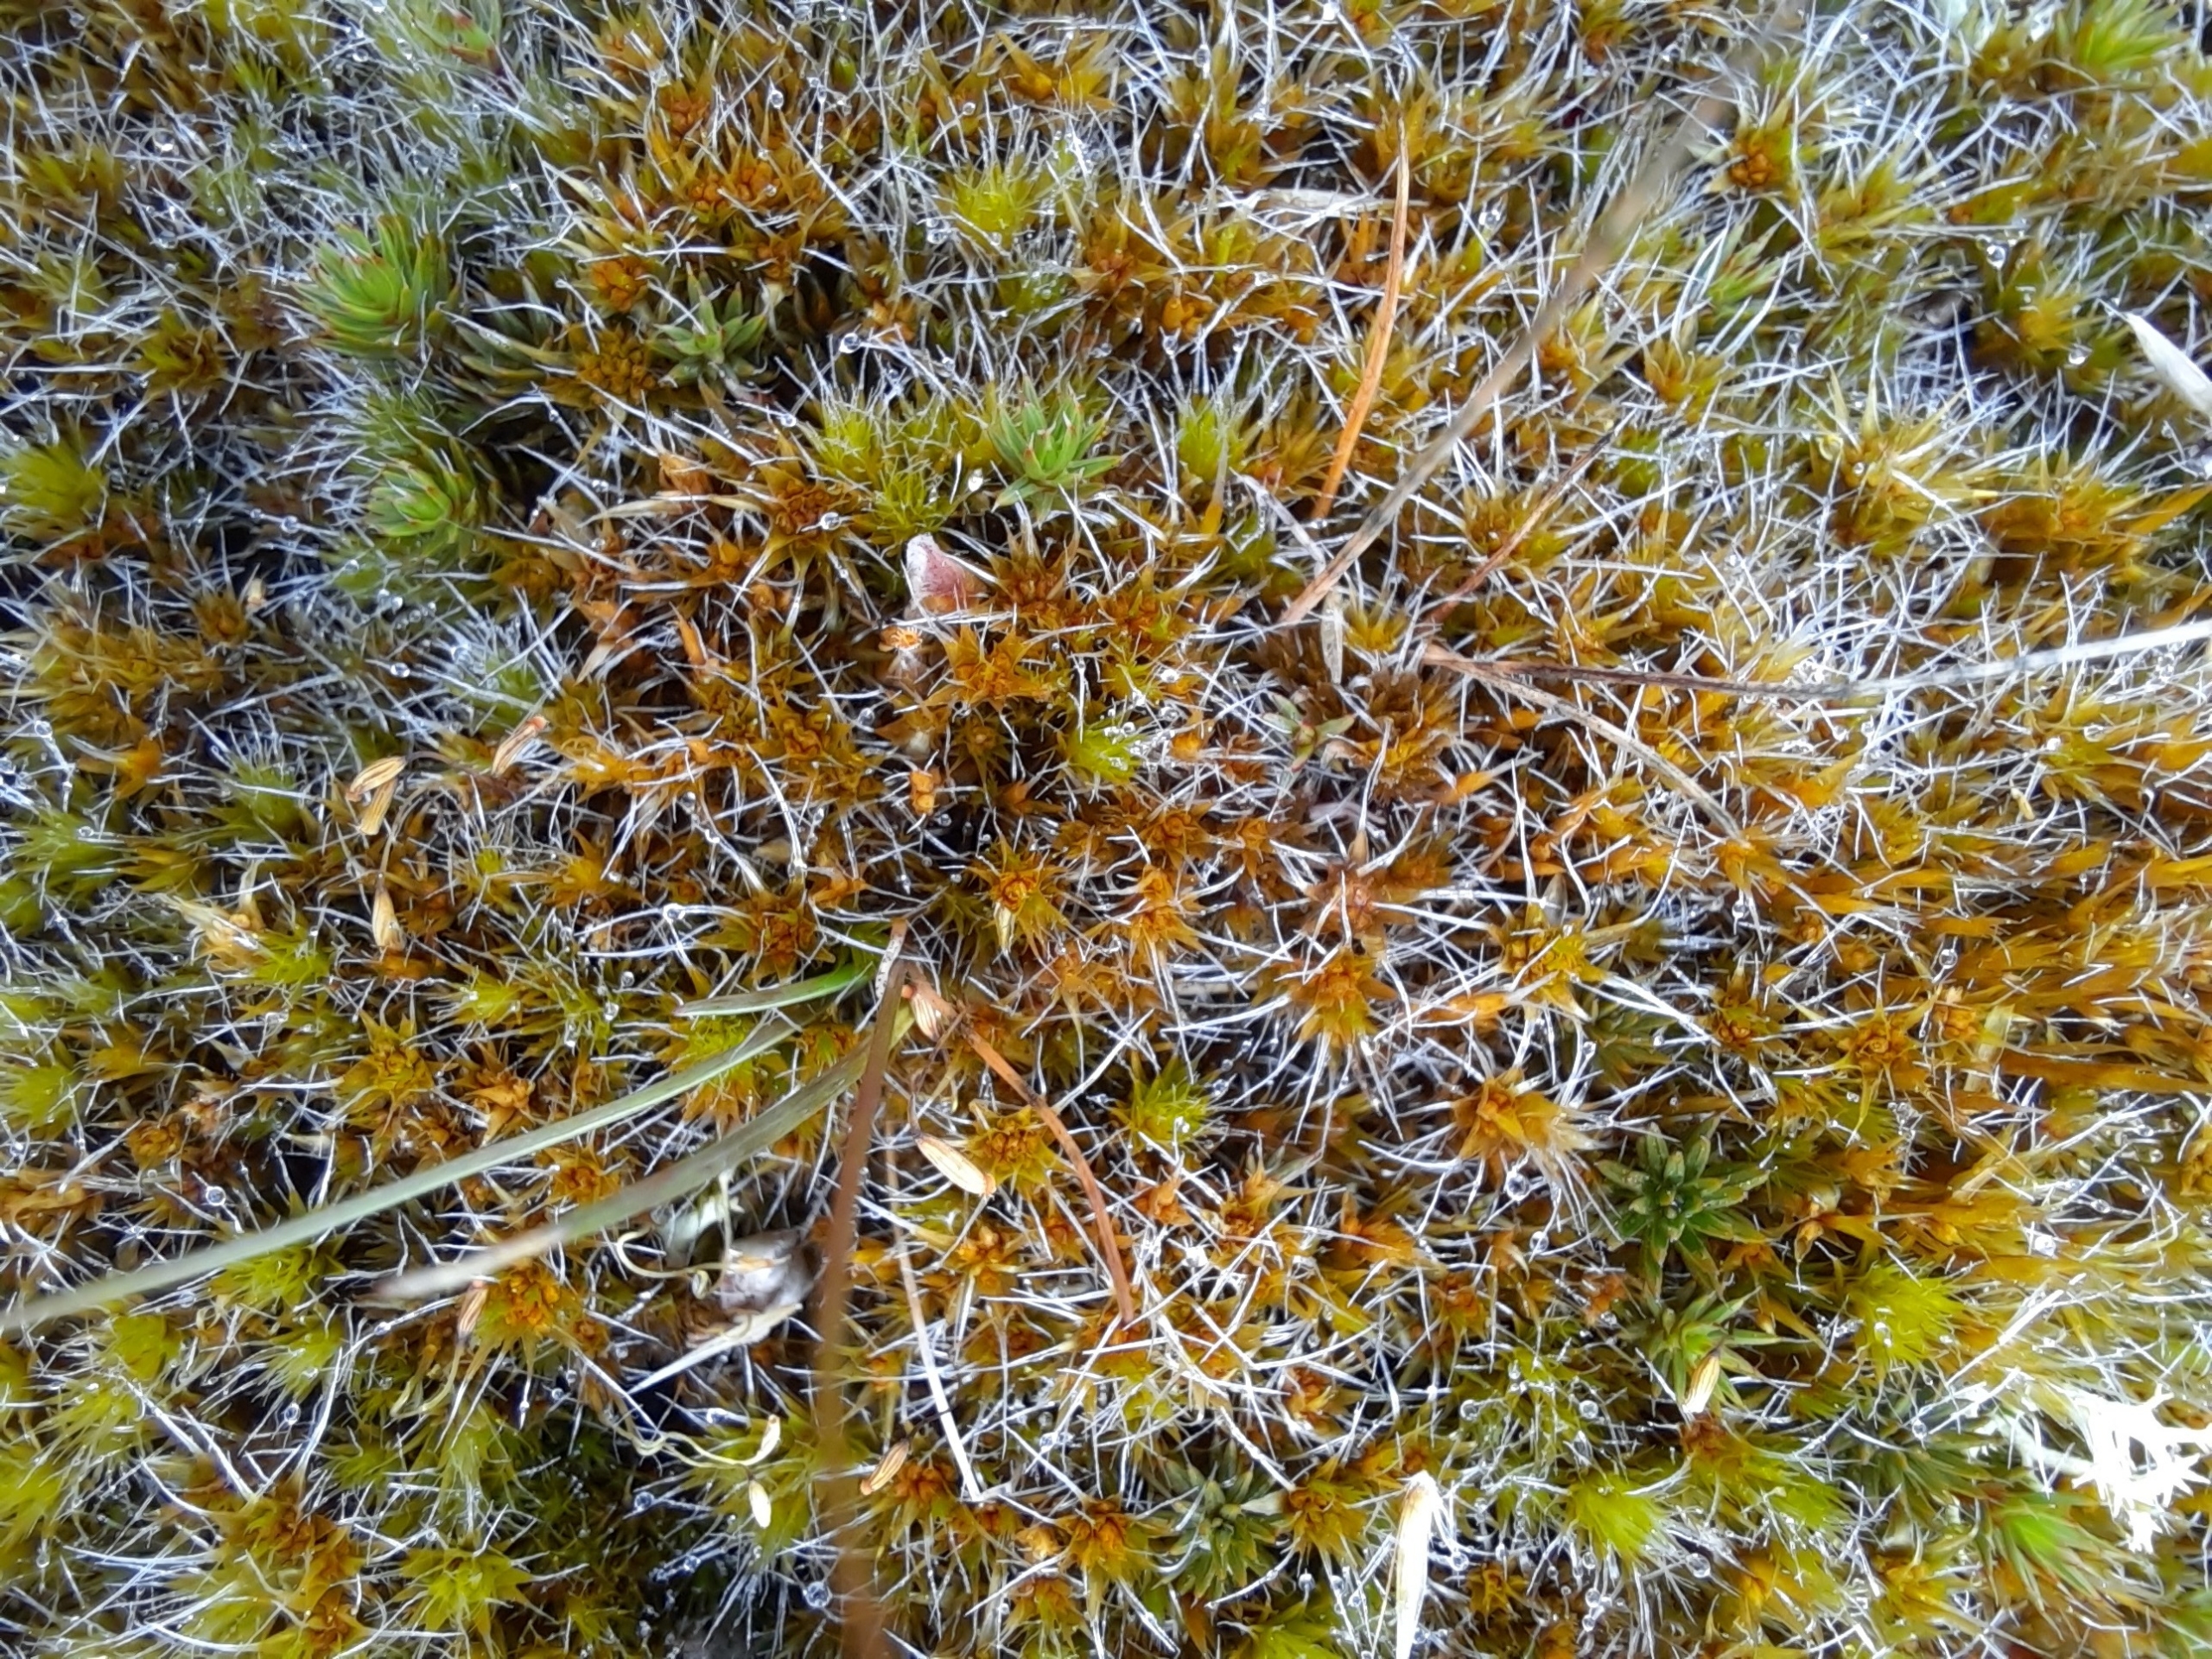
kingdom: Plantae
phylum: Bryophyta
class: Bryopsida
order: Dicranales
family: Leucobryaceae
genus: Campylopus
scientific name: Campylopus introflexus
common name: Stjerne-bredribbe
